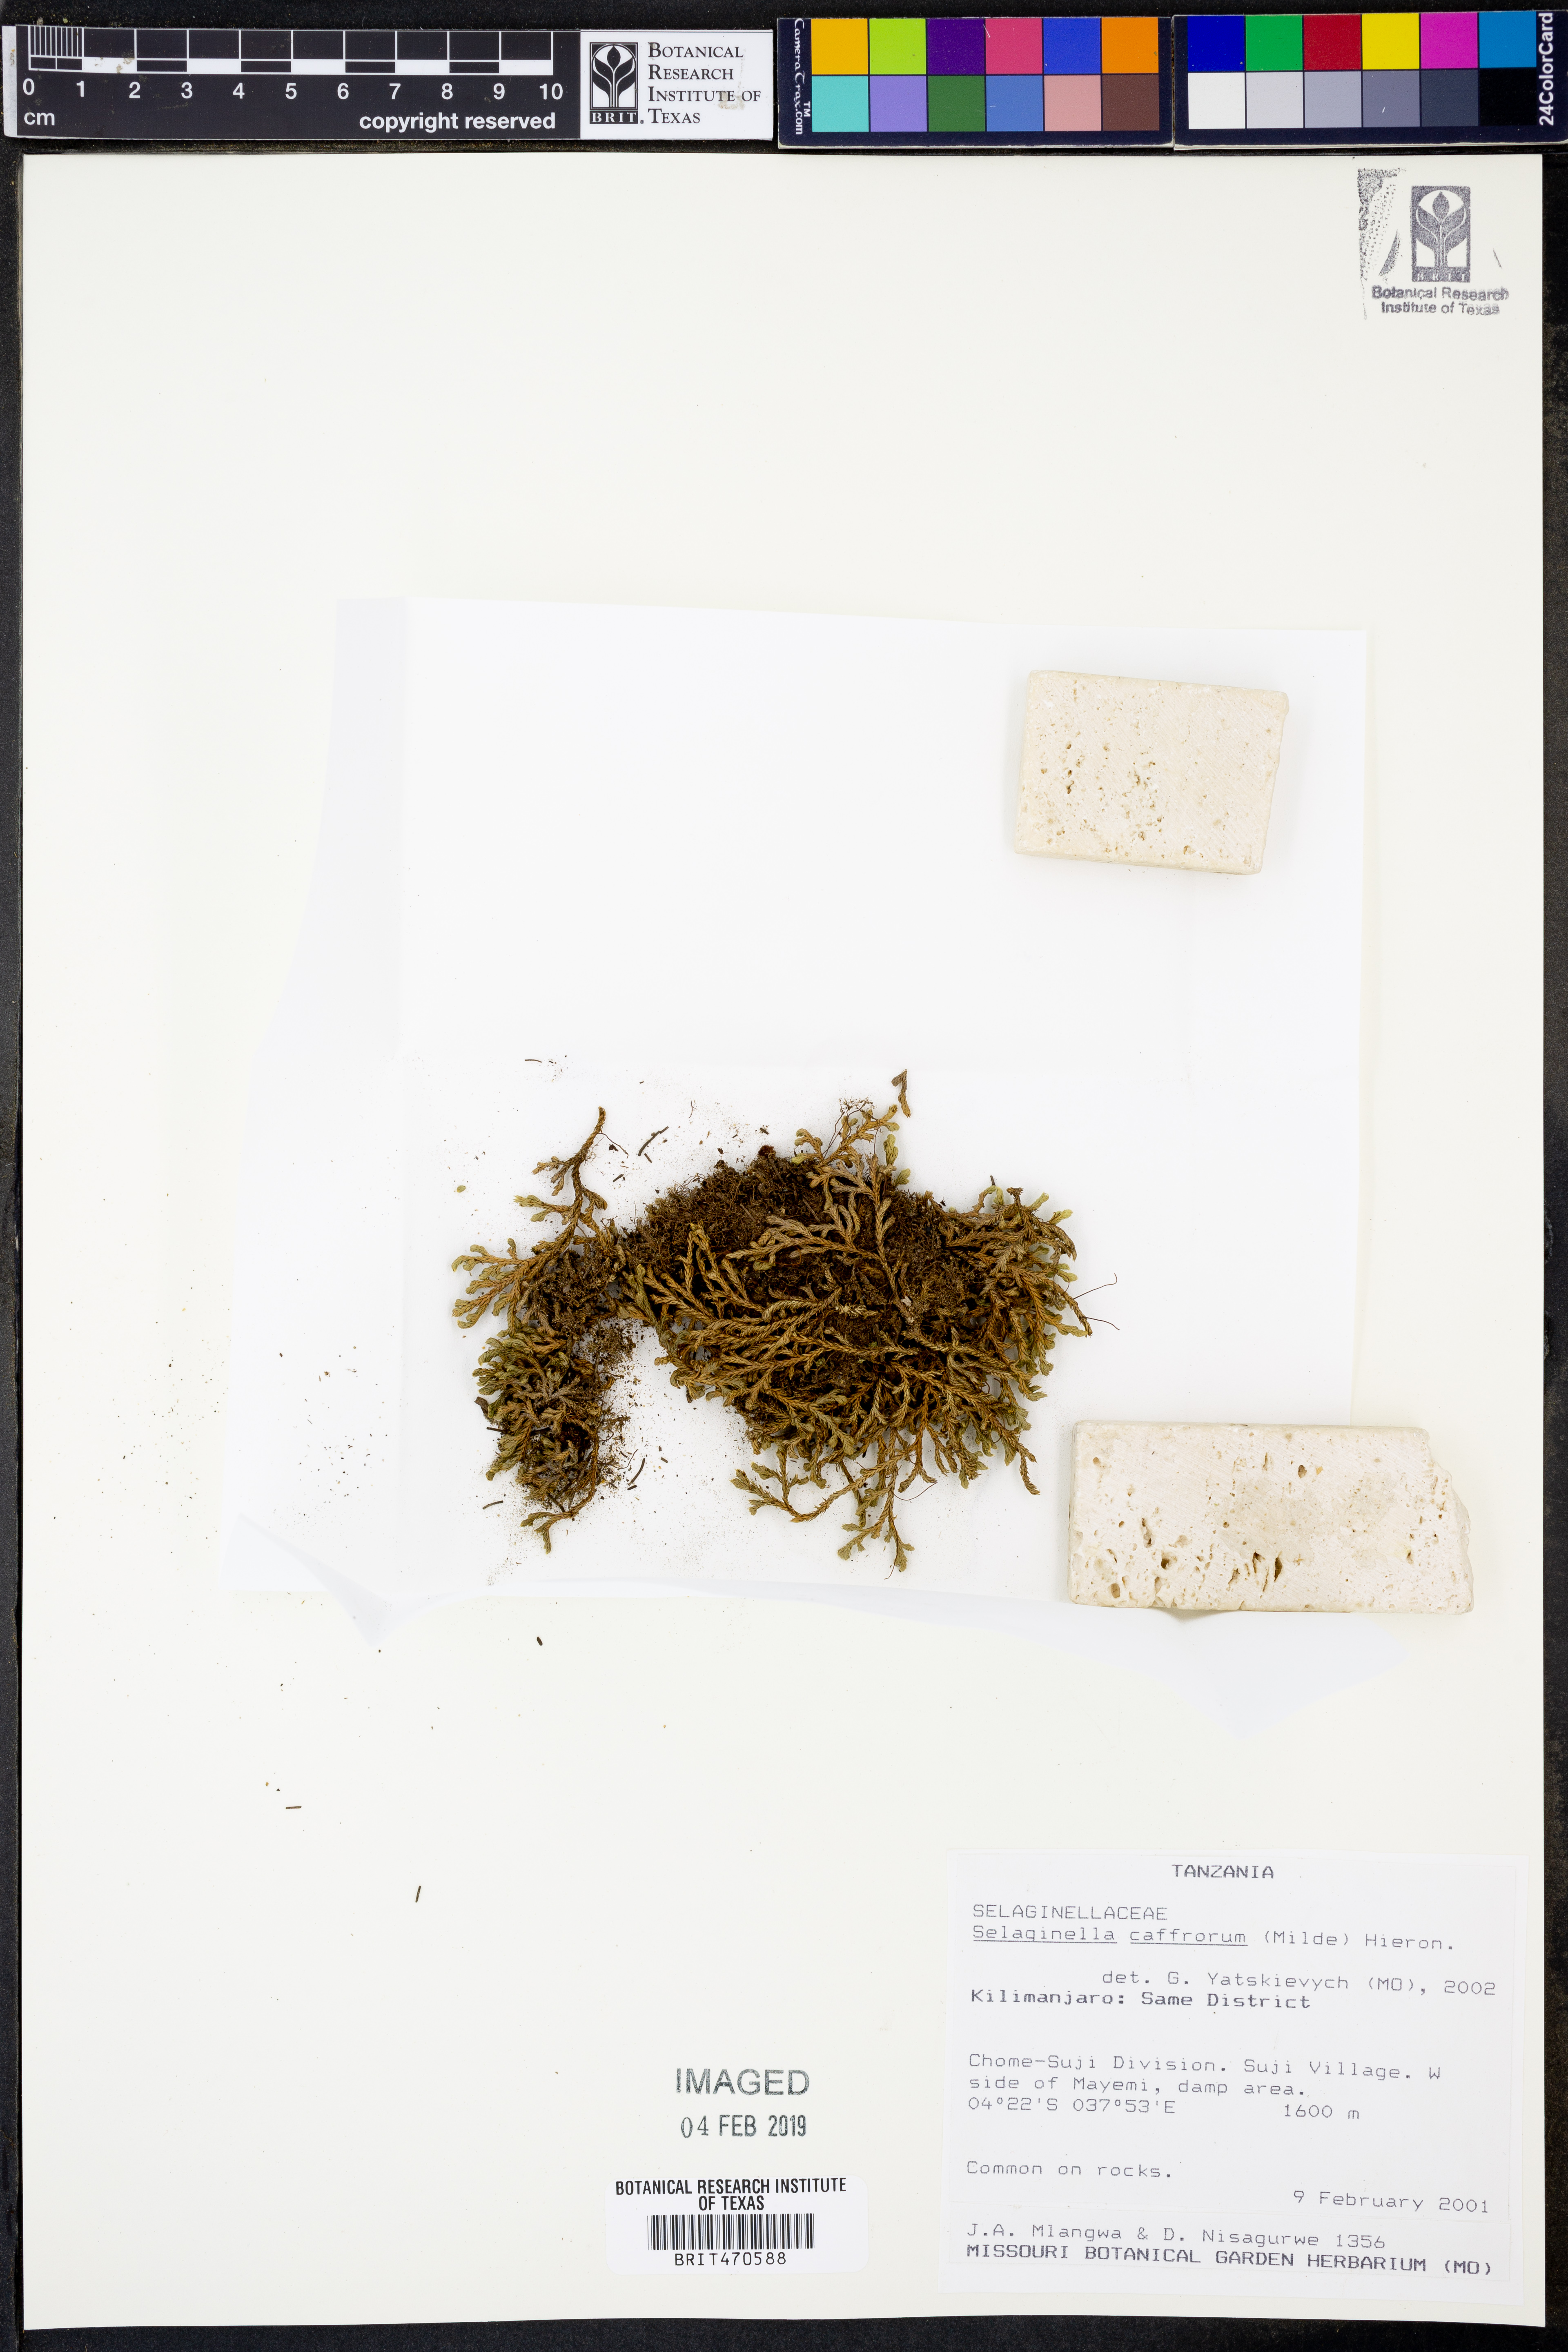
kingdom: Plantae
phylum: Tracheophyta
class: Lycopodiopsida
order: Selaginellales
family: Selaginellaceae
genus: Selaginella
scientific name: Selaginella caffrorum
